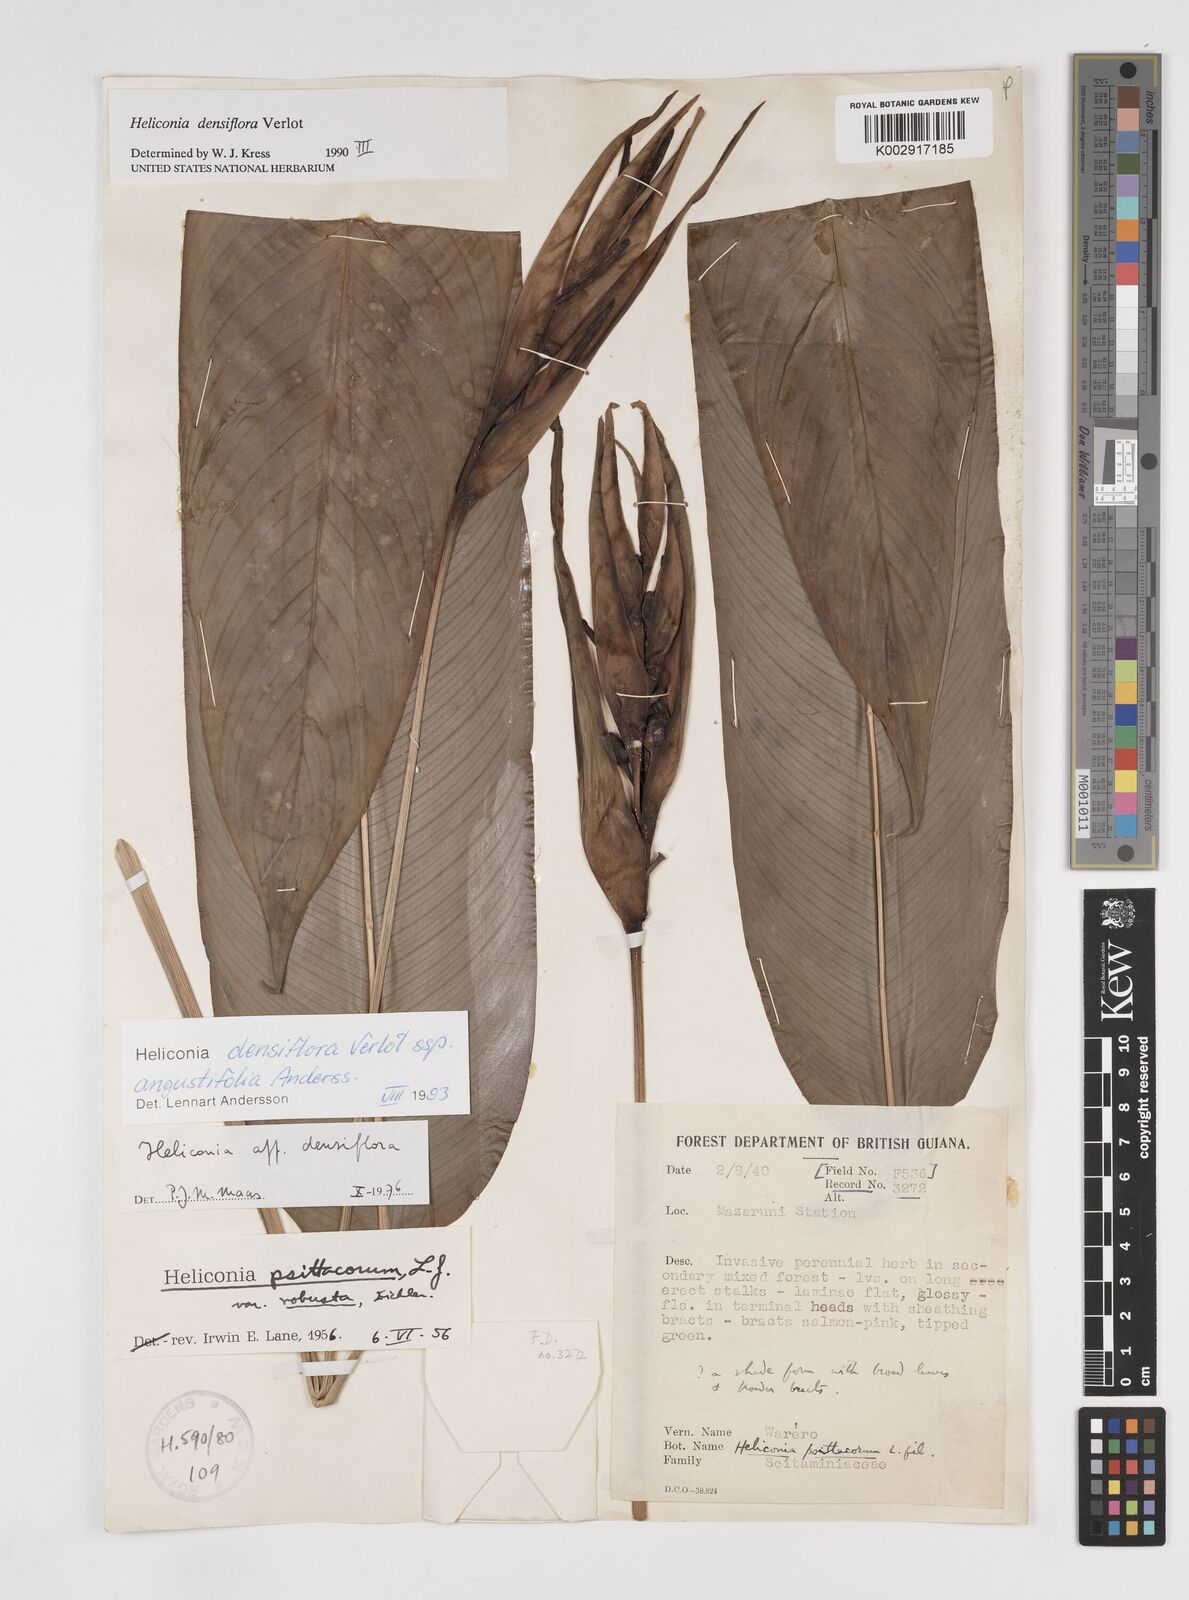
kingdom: Plantae
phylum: Tracheophyta
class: Liliopsida
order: Zingiberales
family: Heliconiaceae
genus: Heliconia
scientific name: Heliconia densiflora
